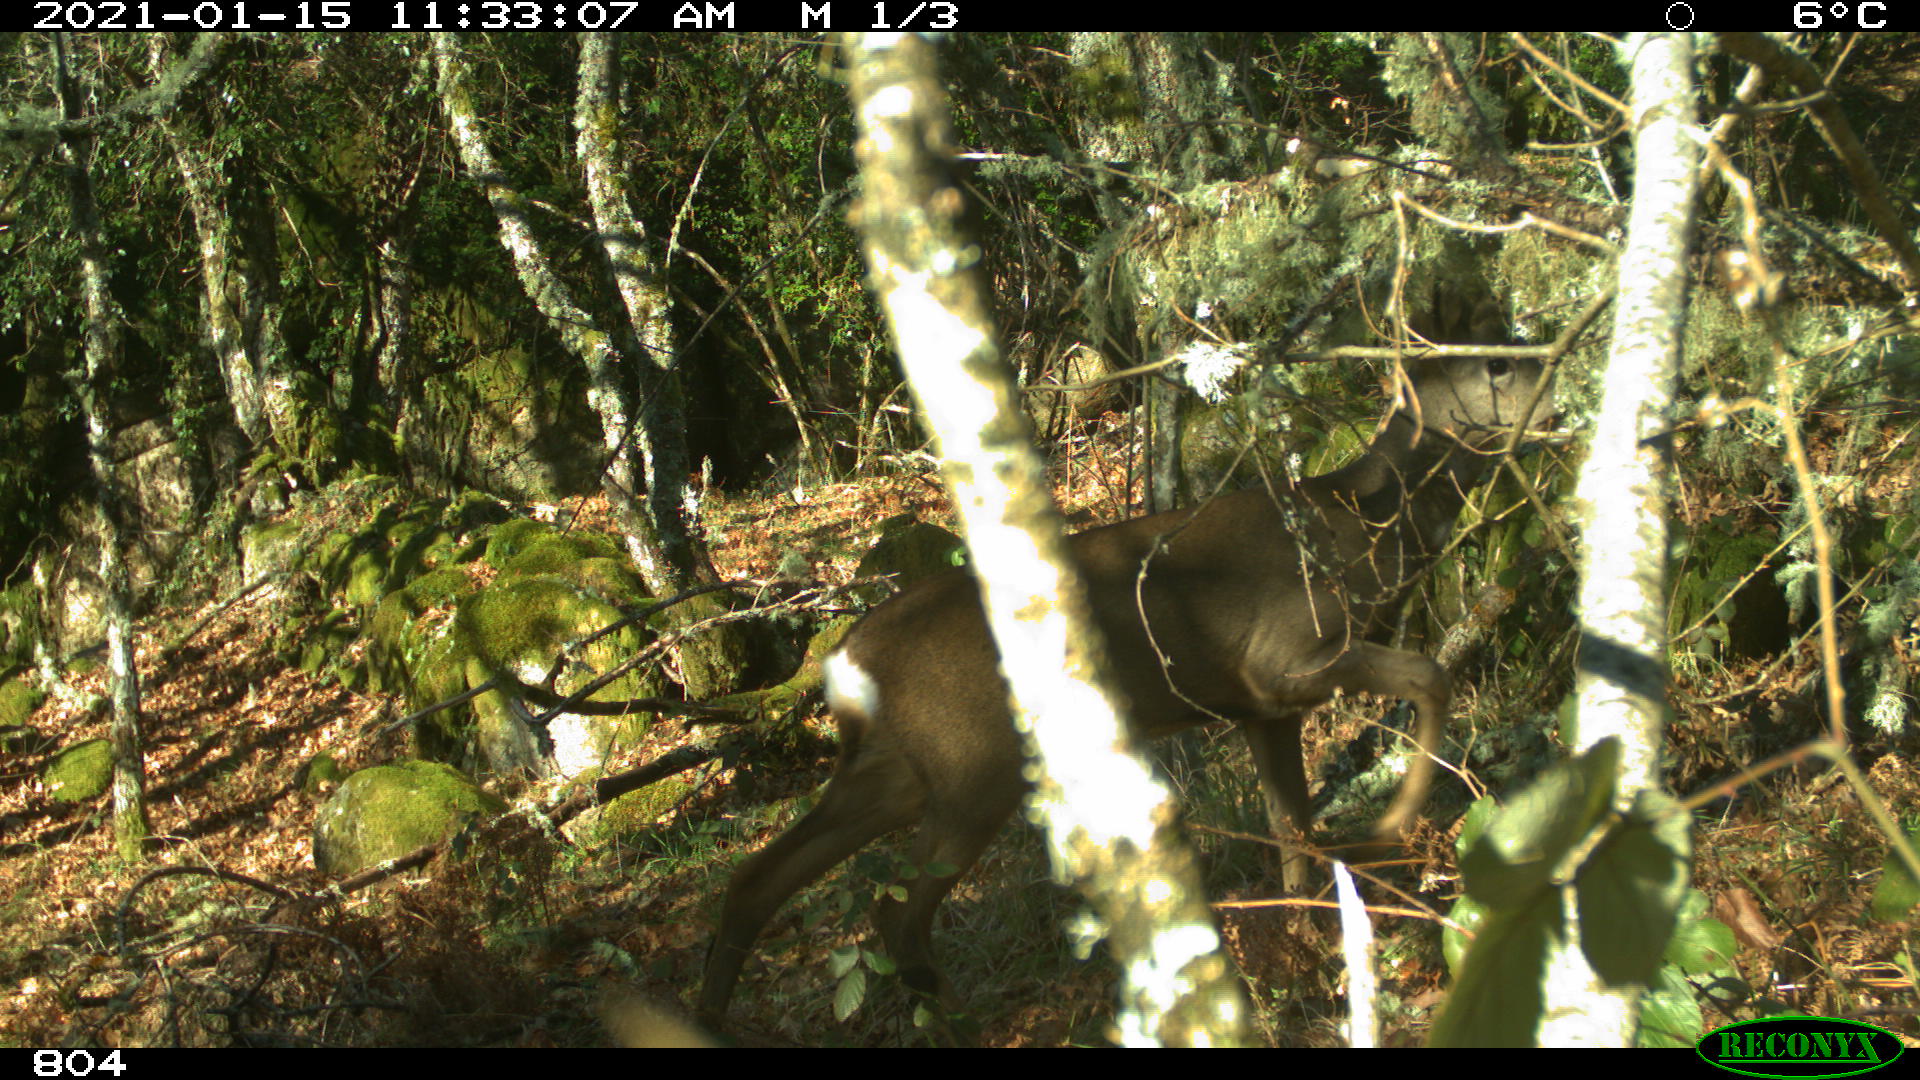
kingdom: Animalia
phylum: Chordata
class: Mammalia
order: Artiodactyla
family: Cervidae
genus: Capreolus
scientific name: Capreolus capreolus
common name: Western roe deer
